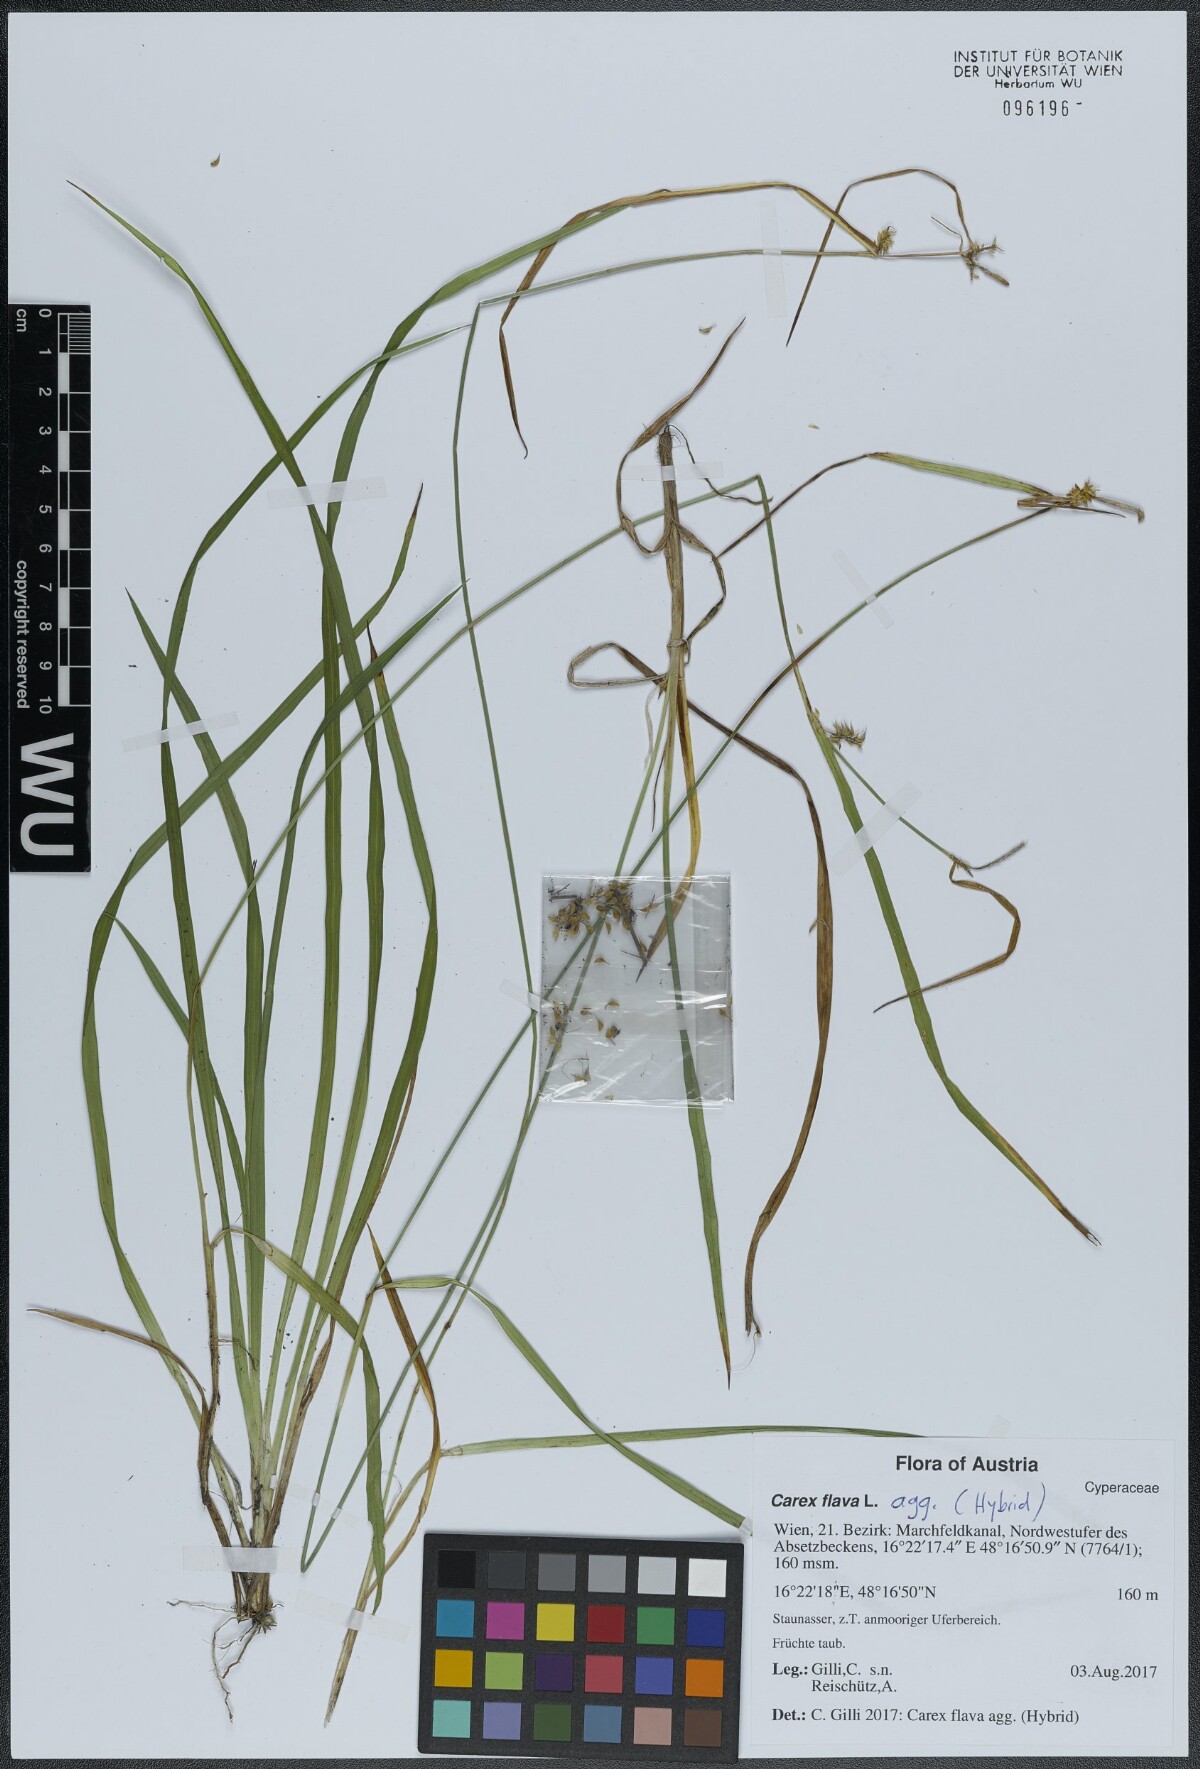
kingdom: Plantae
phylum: Tracheophyta
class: Liliopsida
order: Poales
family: Cyperaceae
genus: Carex
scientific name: Carex ruedtii
